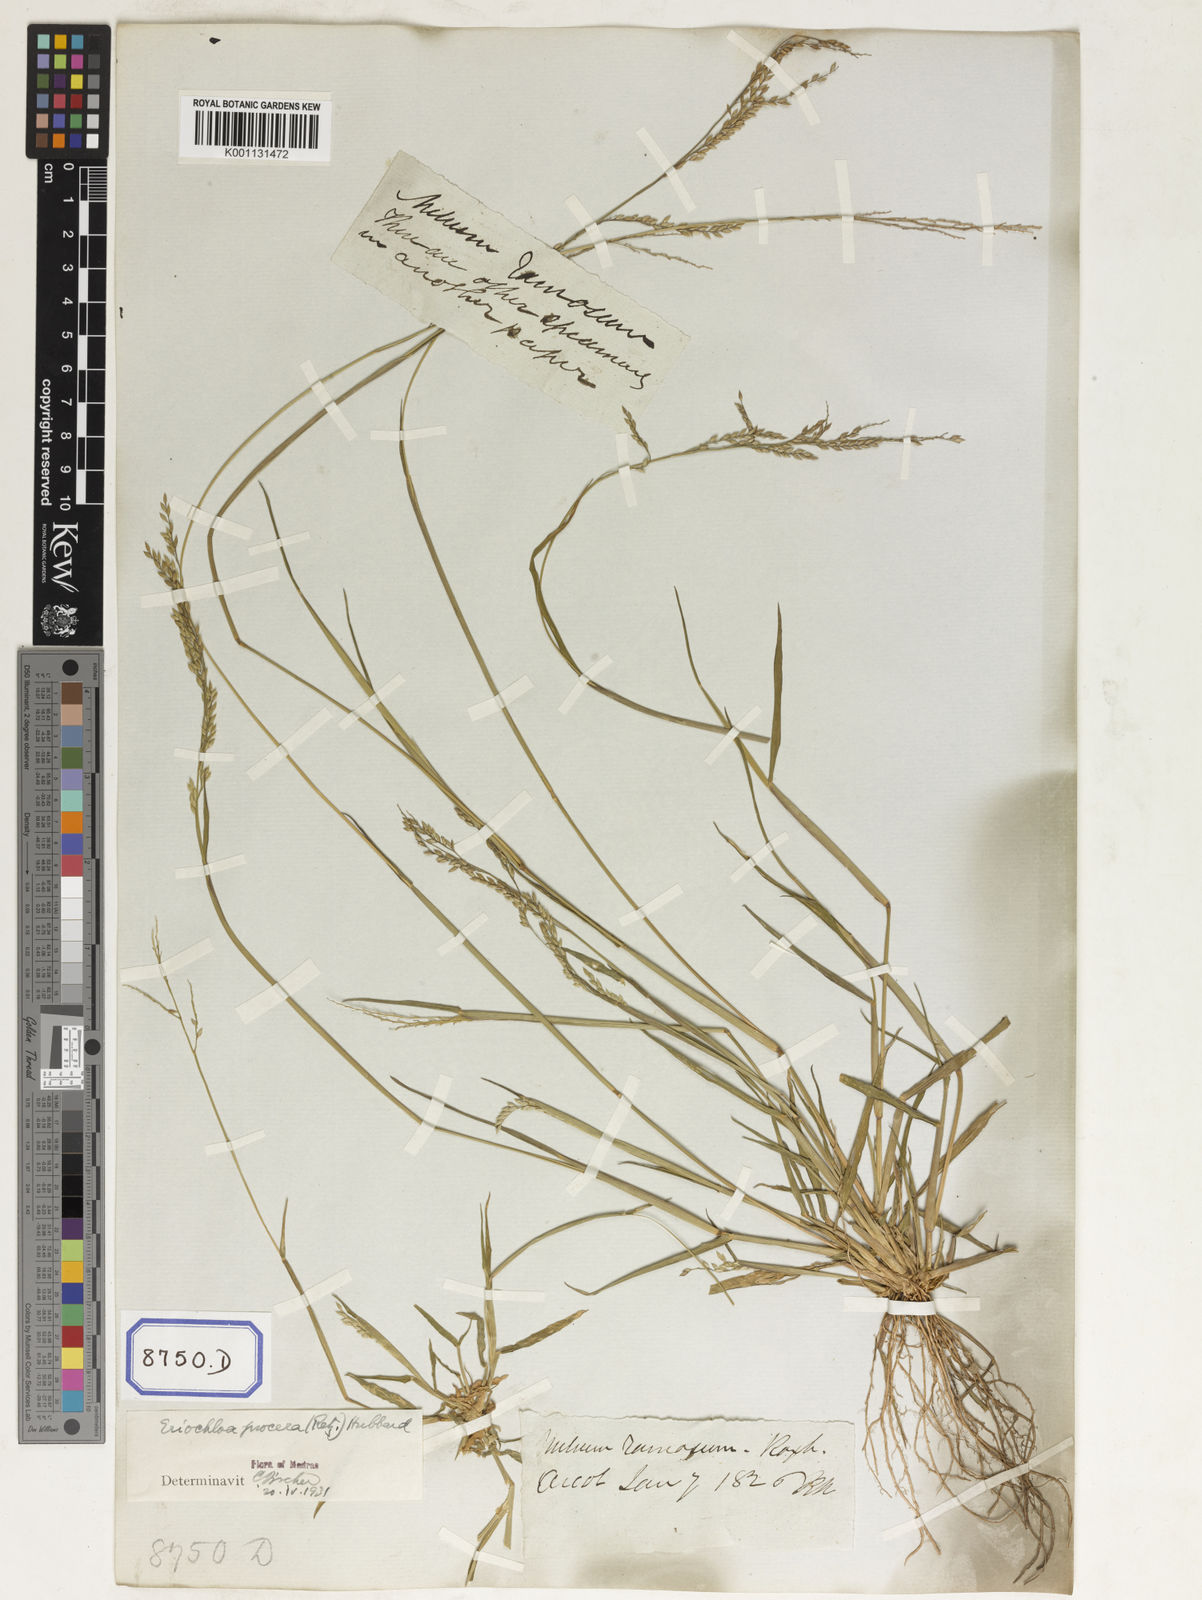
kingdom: Plantae
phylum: Tracheophyta
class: Liliopsida
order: Poales
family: Poaceae
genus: Eriochloa
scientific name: Eriochloa procera
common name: Spring grass
